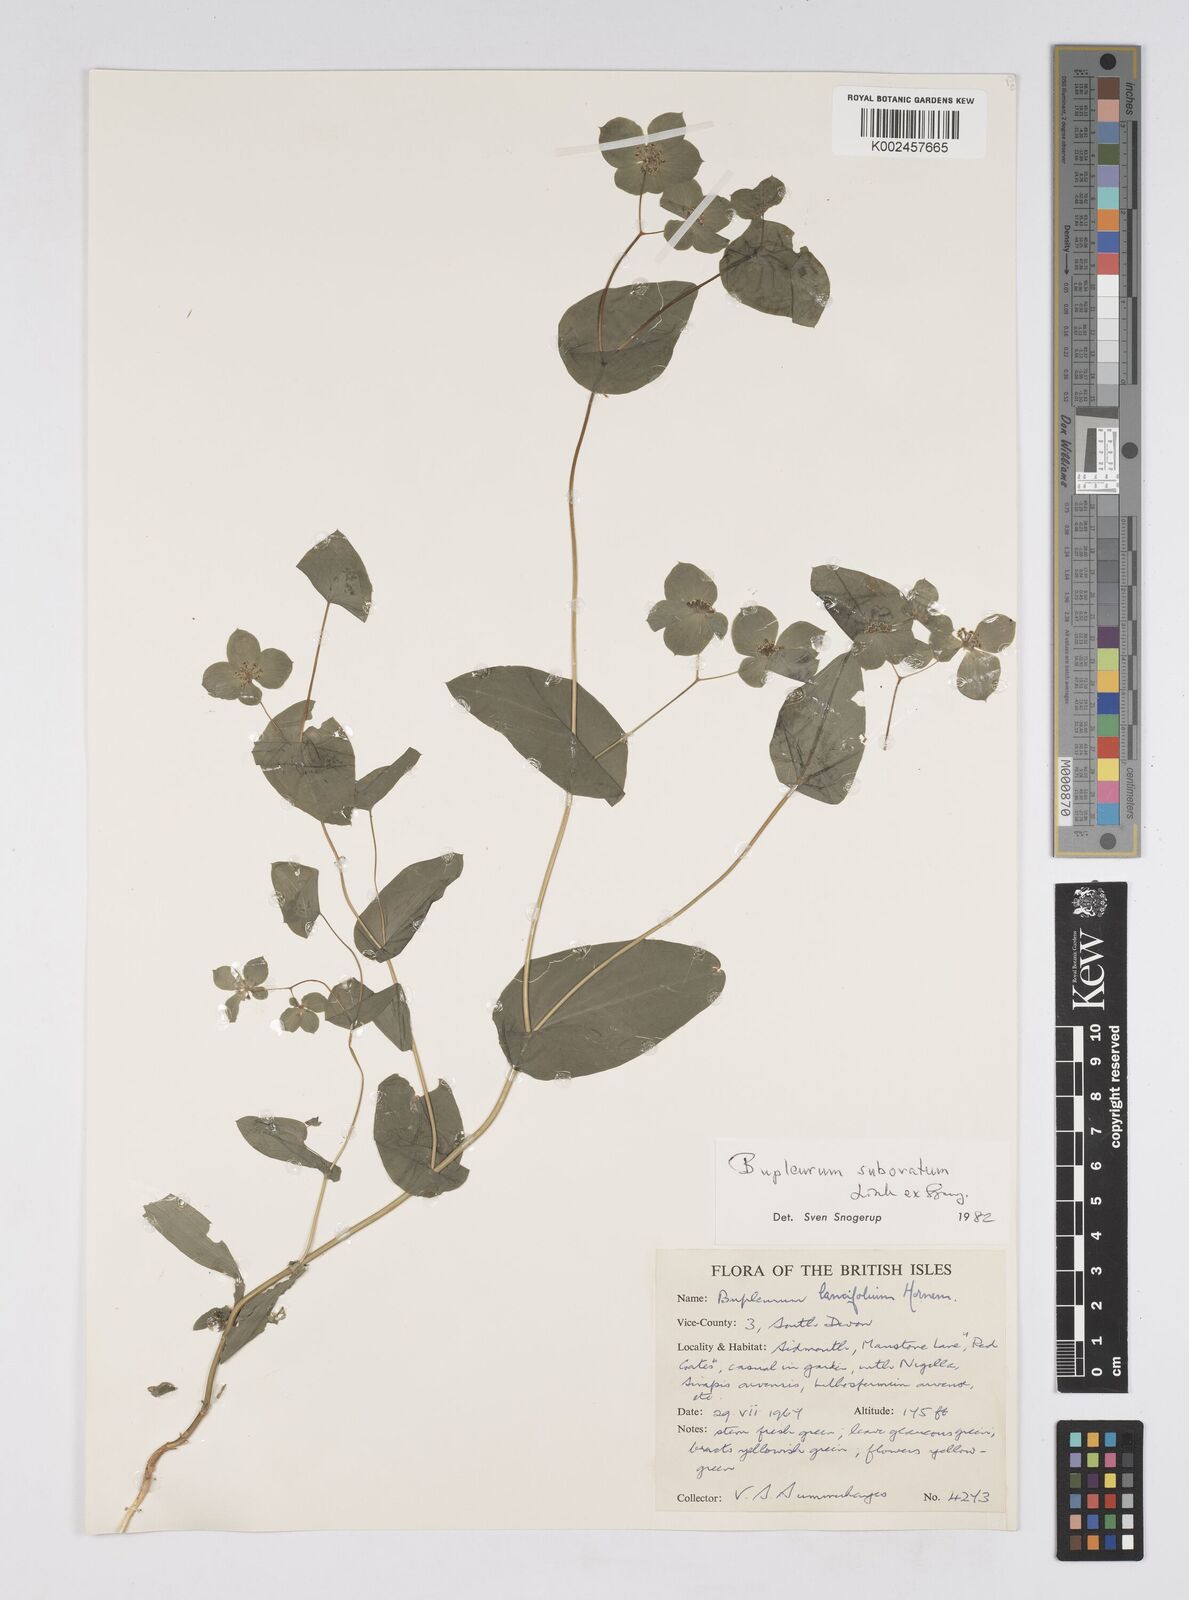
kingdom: Plantae
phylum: Tracheophyta
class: Magnoliopsida
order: Apiales
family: Apiaceae
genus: Bupleurum
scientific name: Bupleurum subovatum
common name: False thorow-wax
